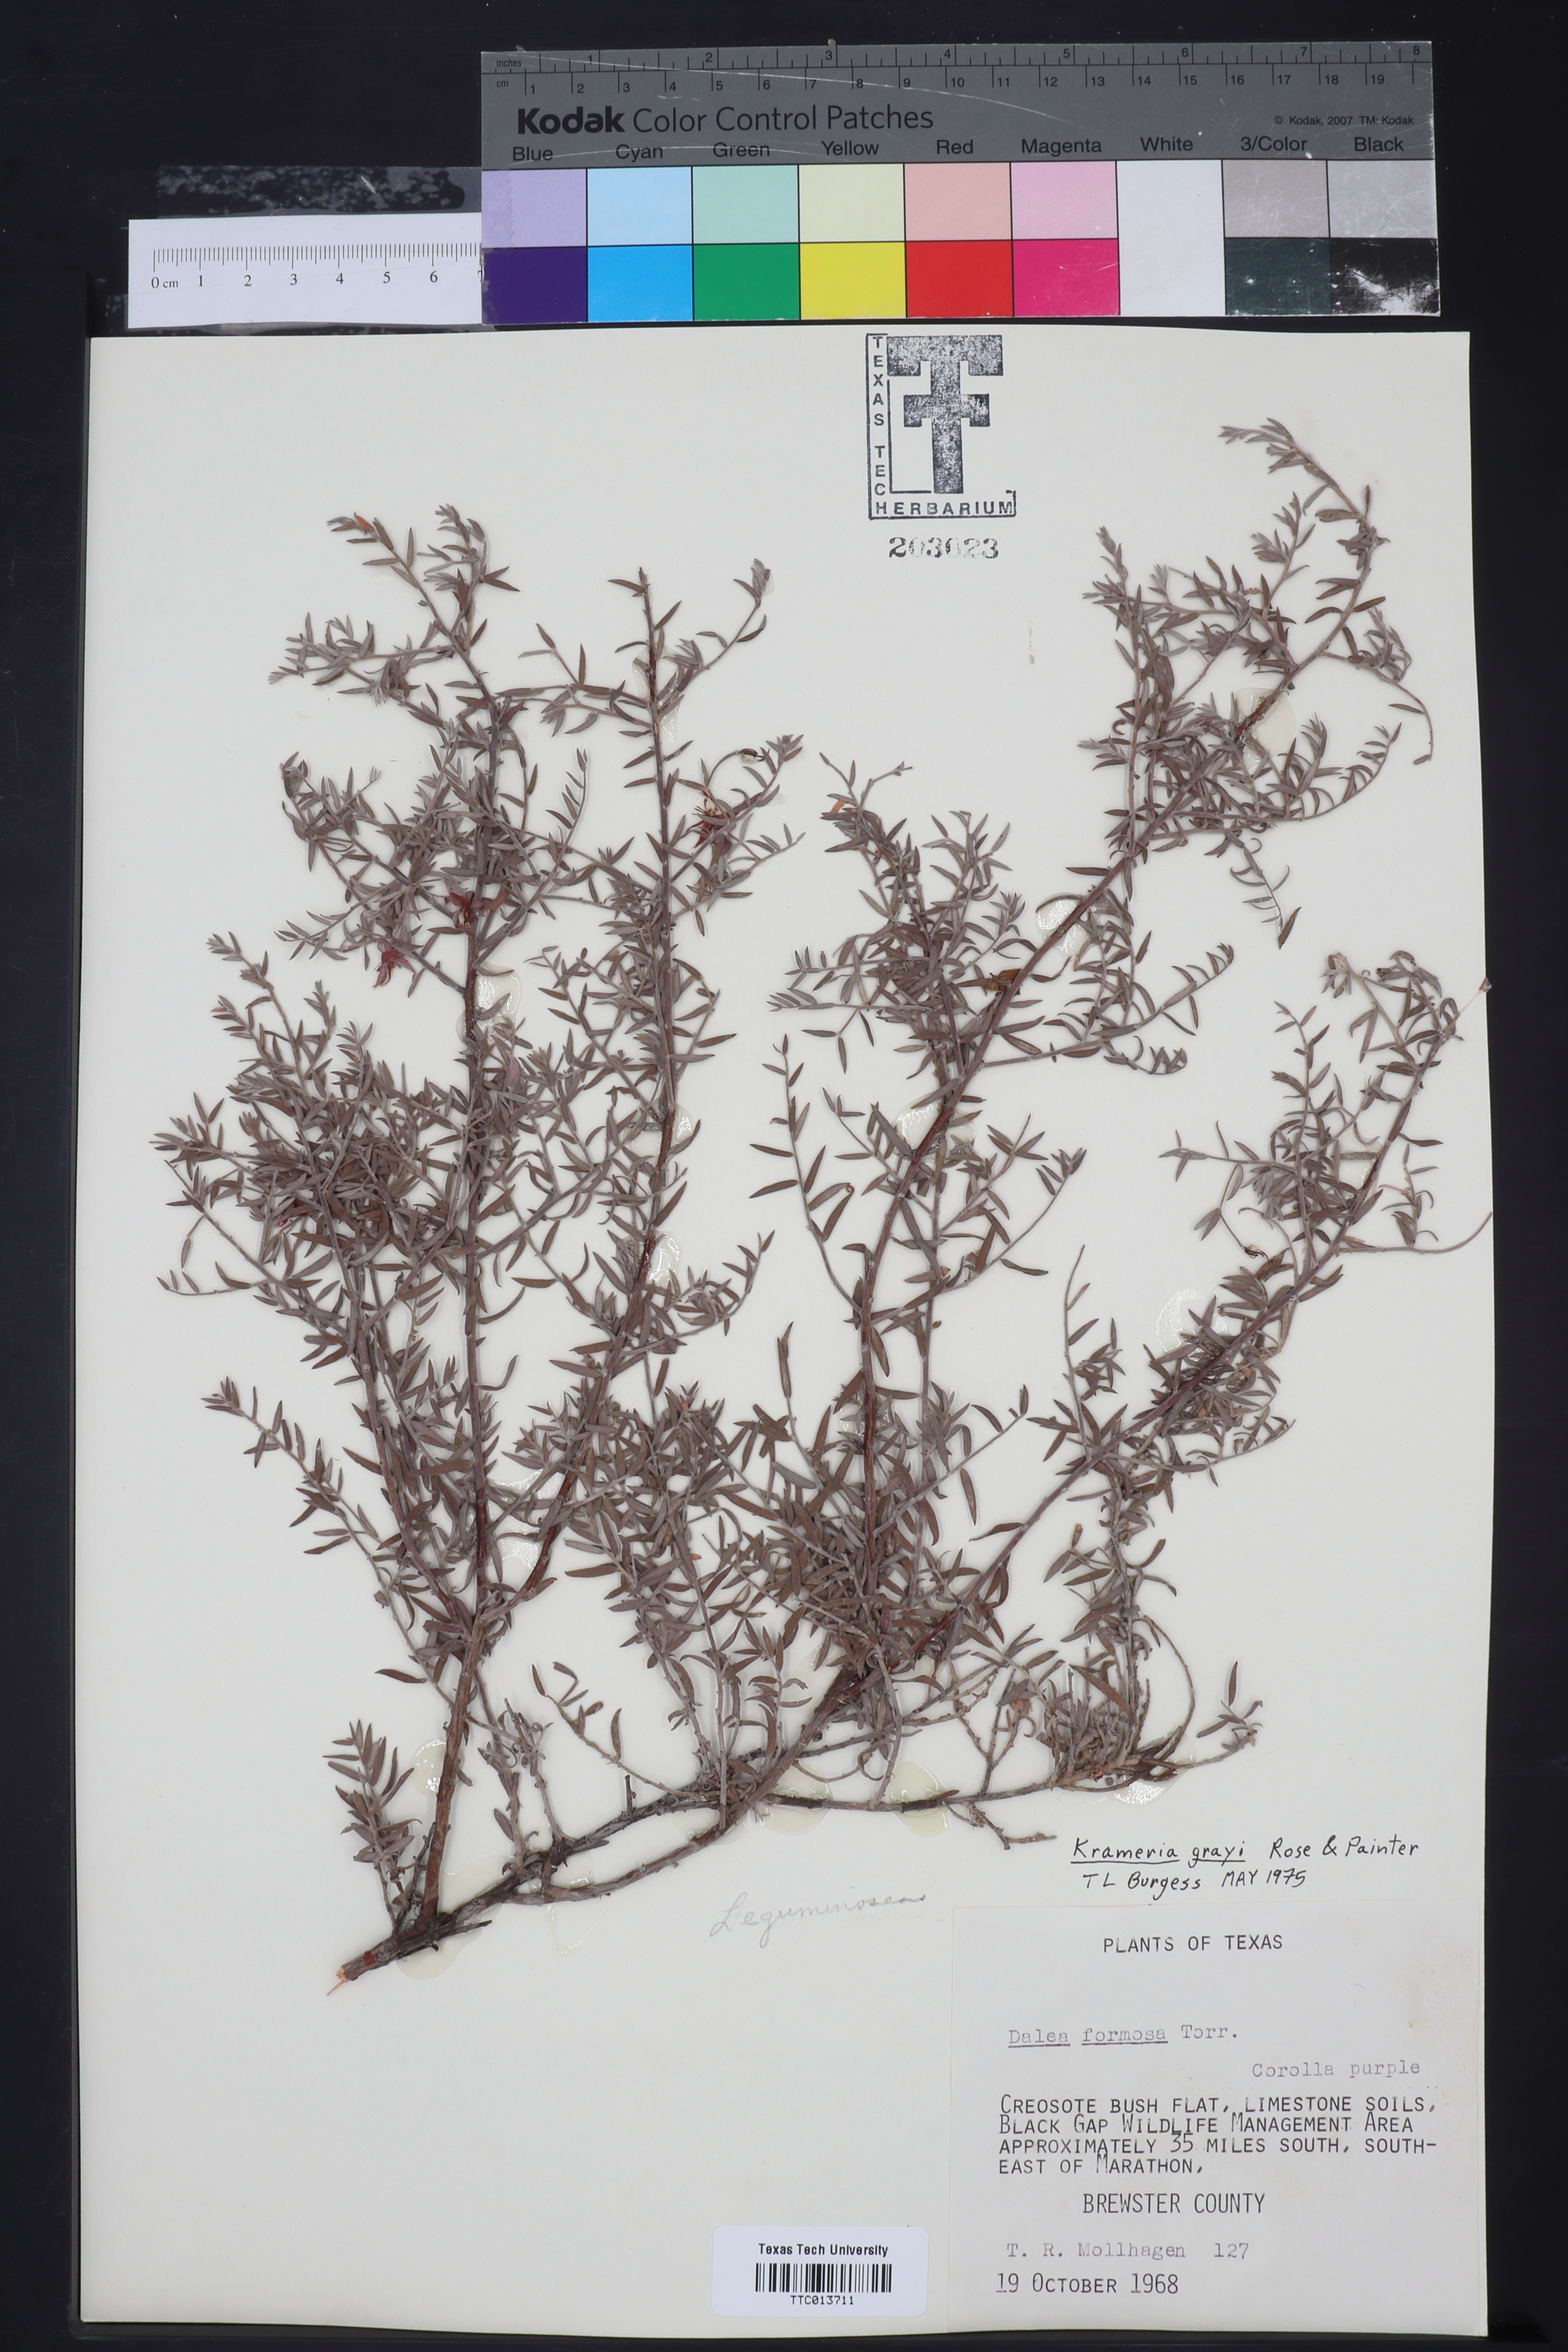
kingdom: Plantae
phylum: Tracheophyta
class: Magnoliopsida
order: Zygophyllales
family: Krameriaceae
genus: Krameria
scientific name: Krameria bicolor
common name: White ratany
